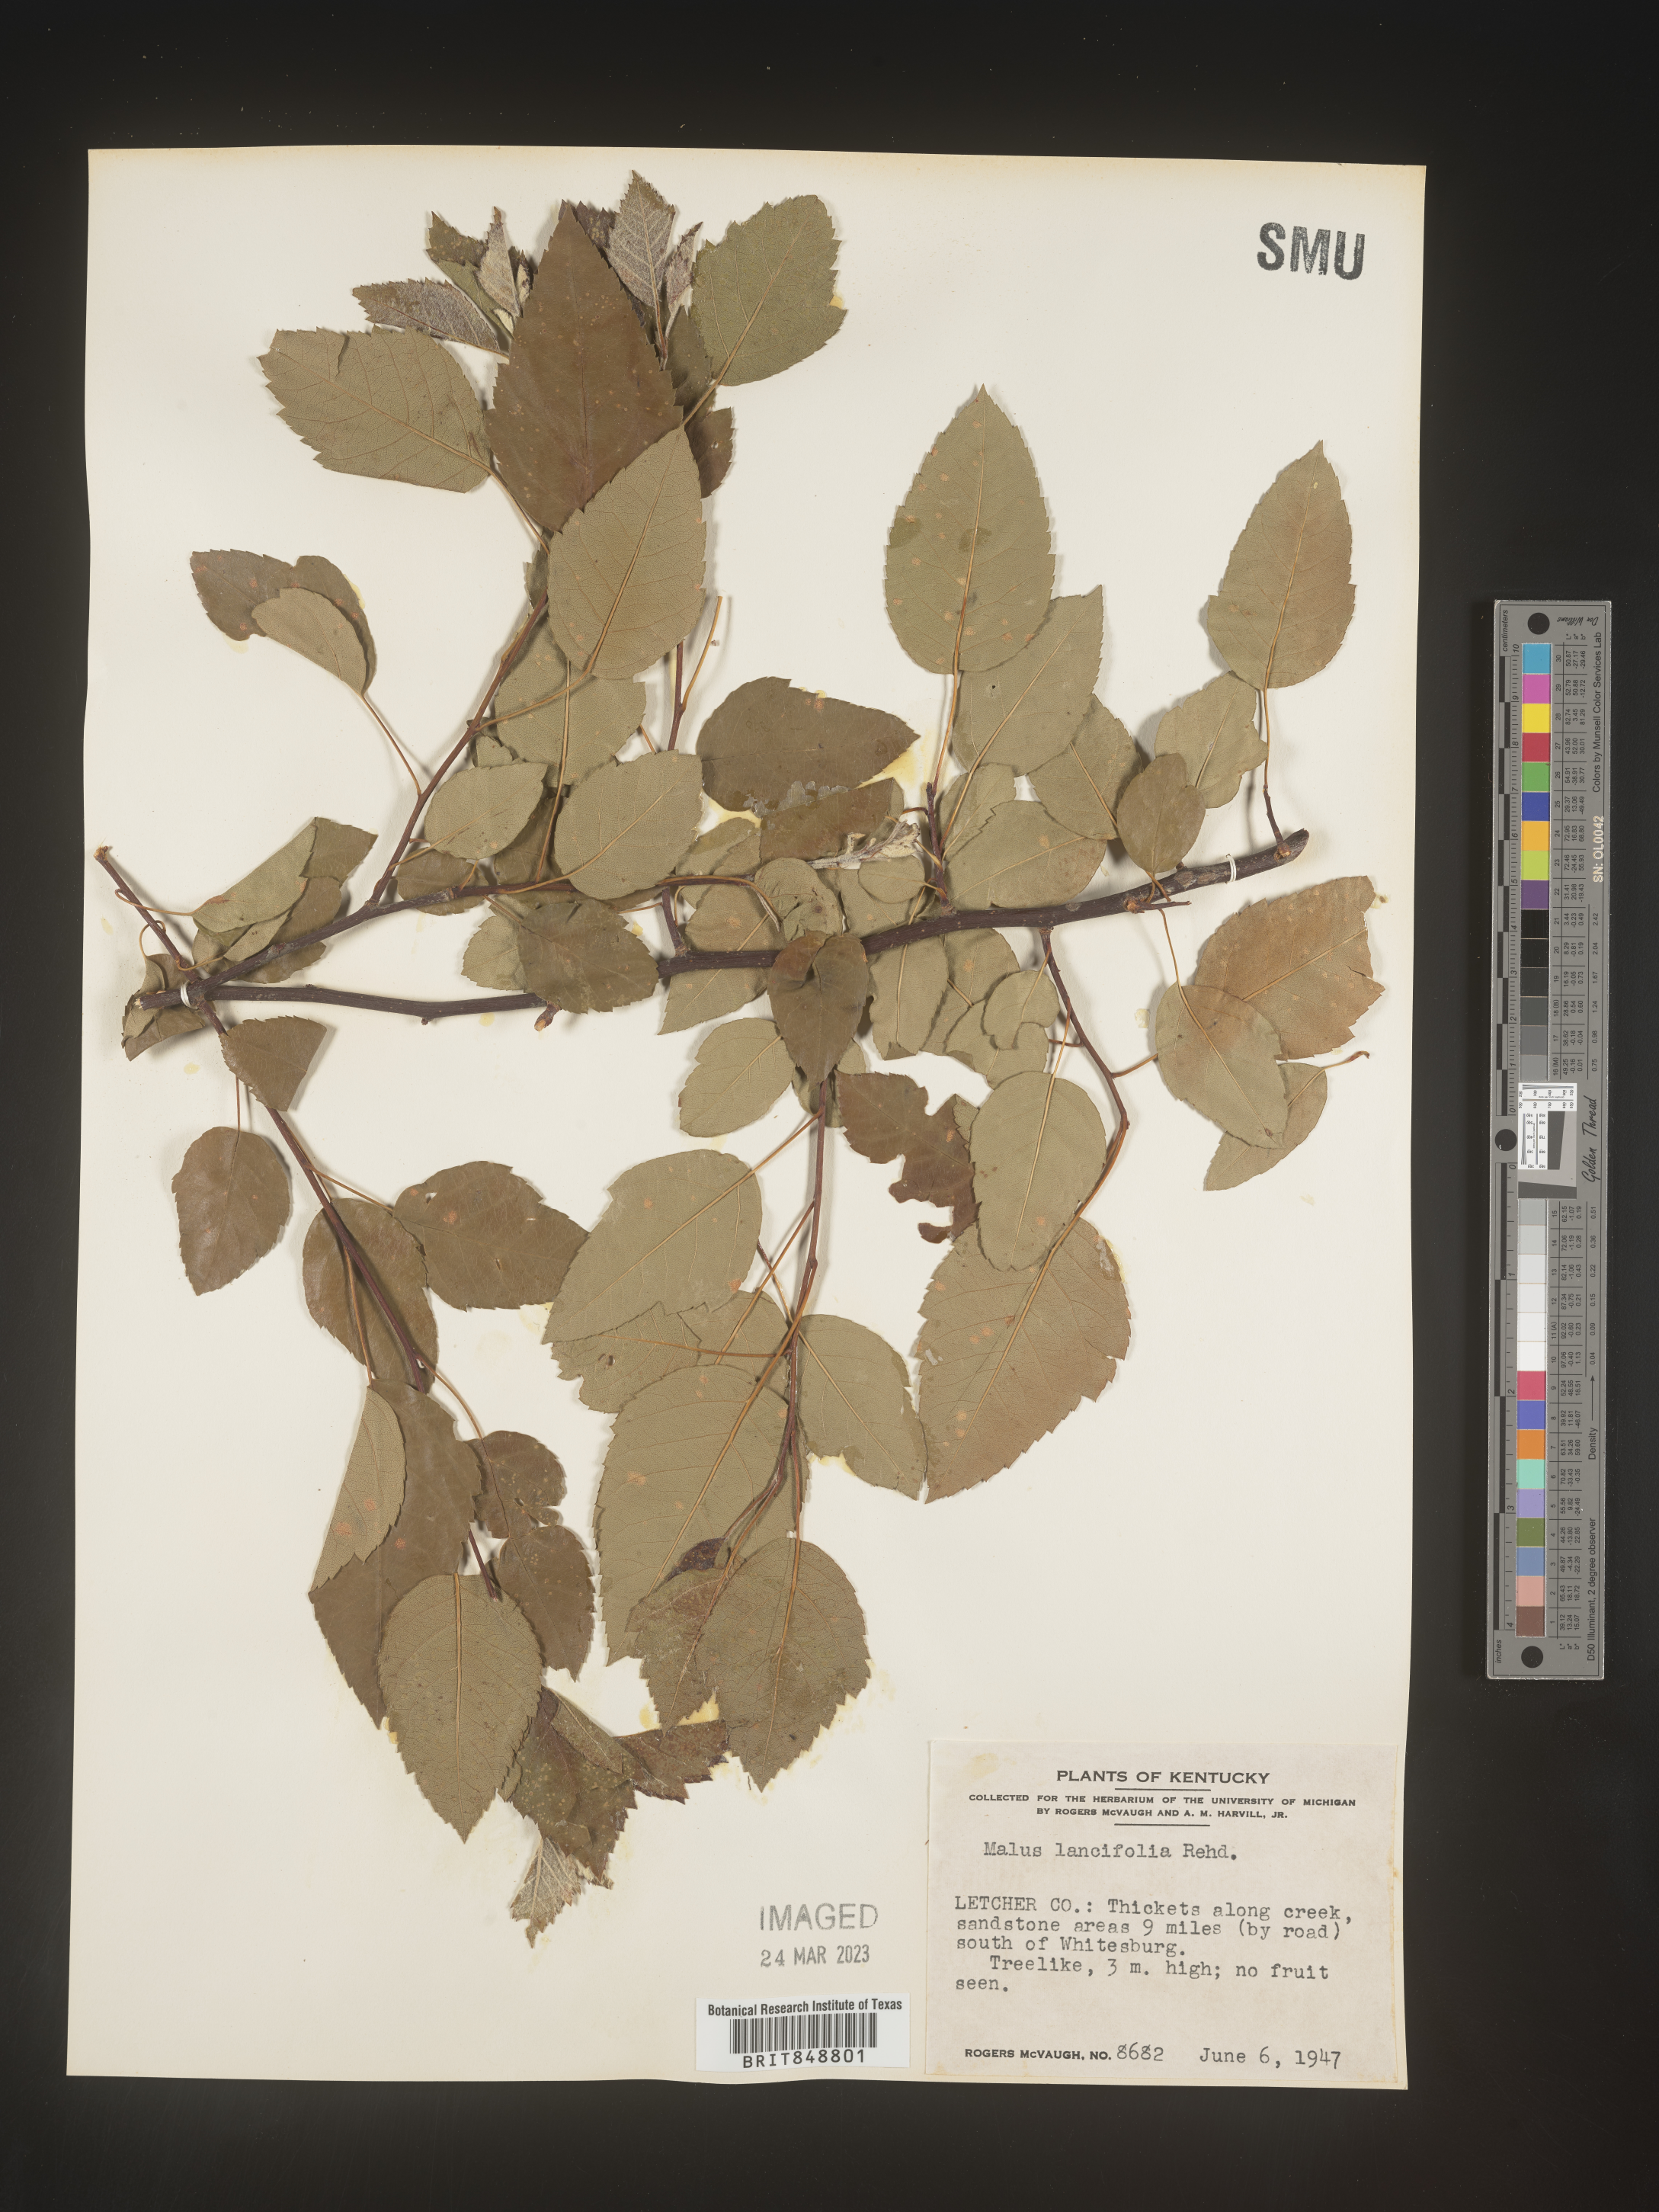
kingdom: Plantae
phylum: Tracheophyta
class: Magnoliopsida
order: Rosales
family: Rosaceae
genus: Malus
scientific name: Malus
